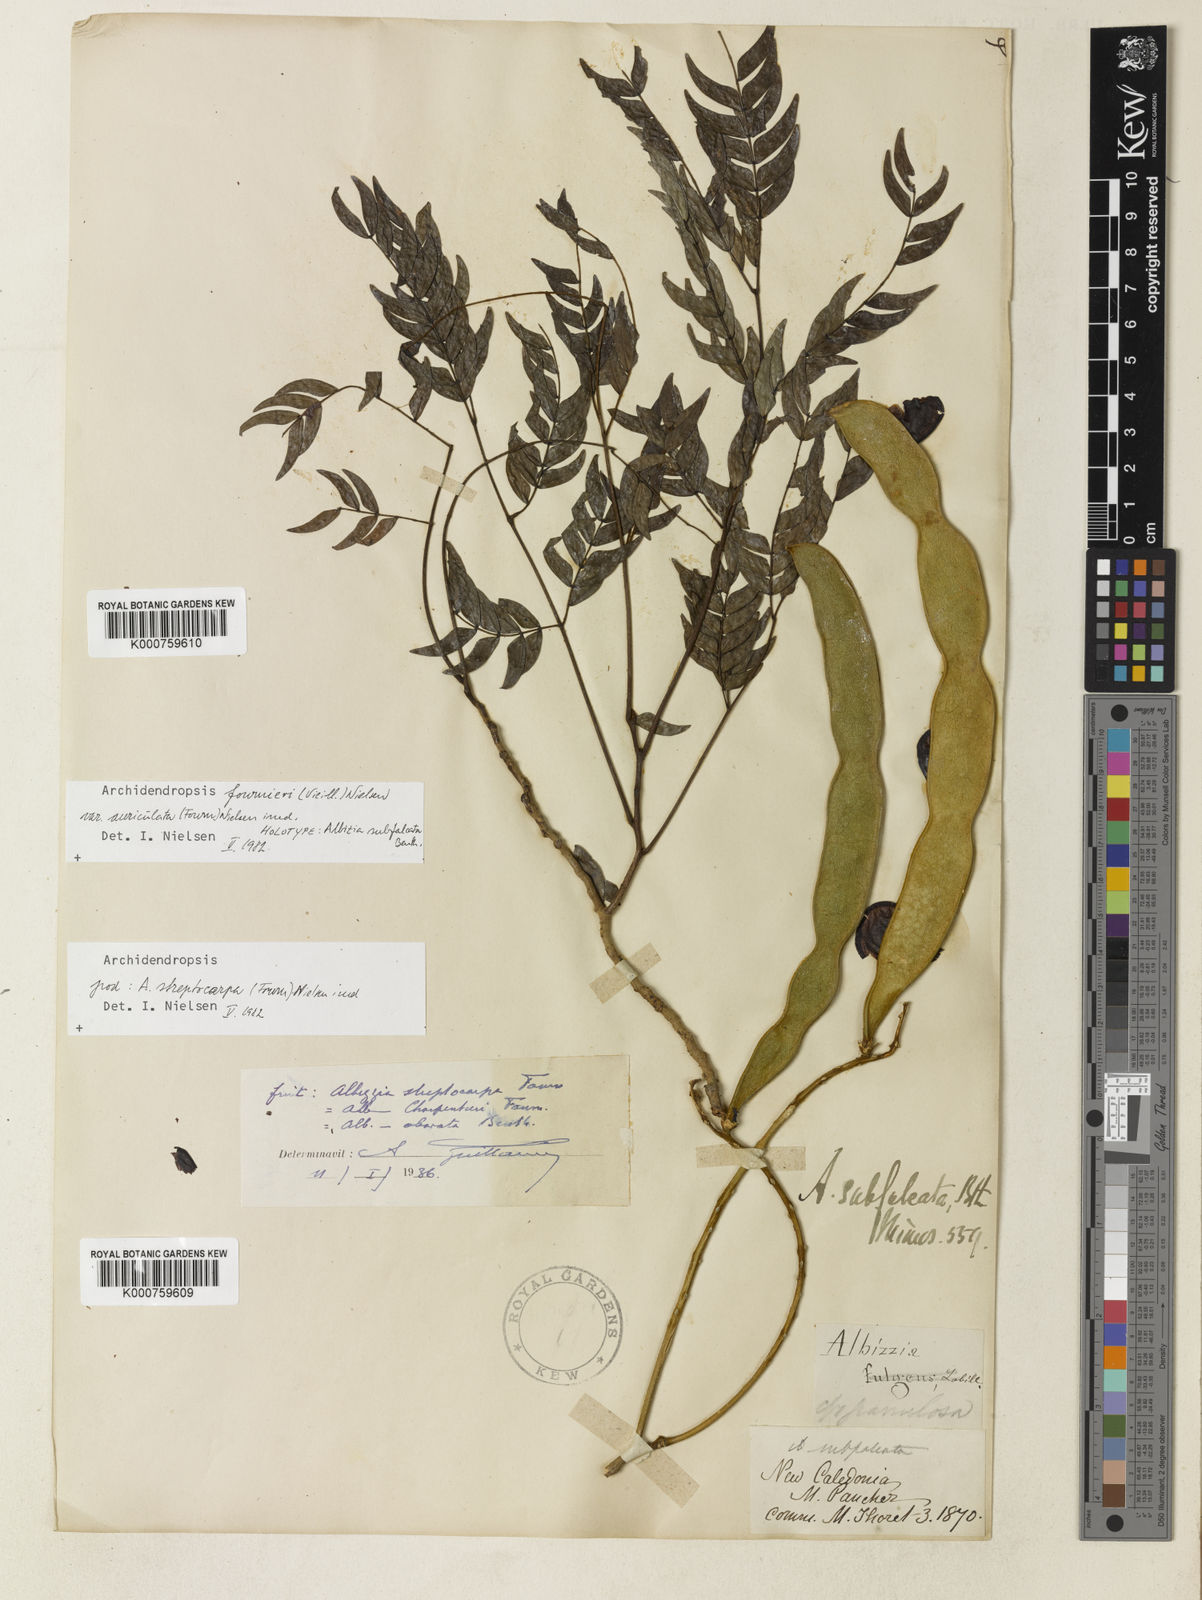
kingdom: Plantae
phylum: Tracheophyta
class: Magnoliopsida
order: Fabales
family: Fabaceae
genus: Archidendropsis
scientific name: Archidendropsis fournieri
